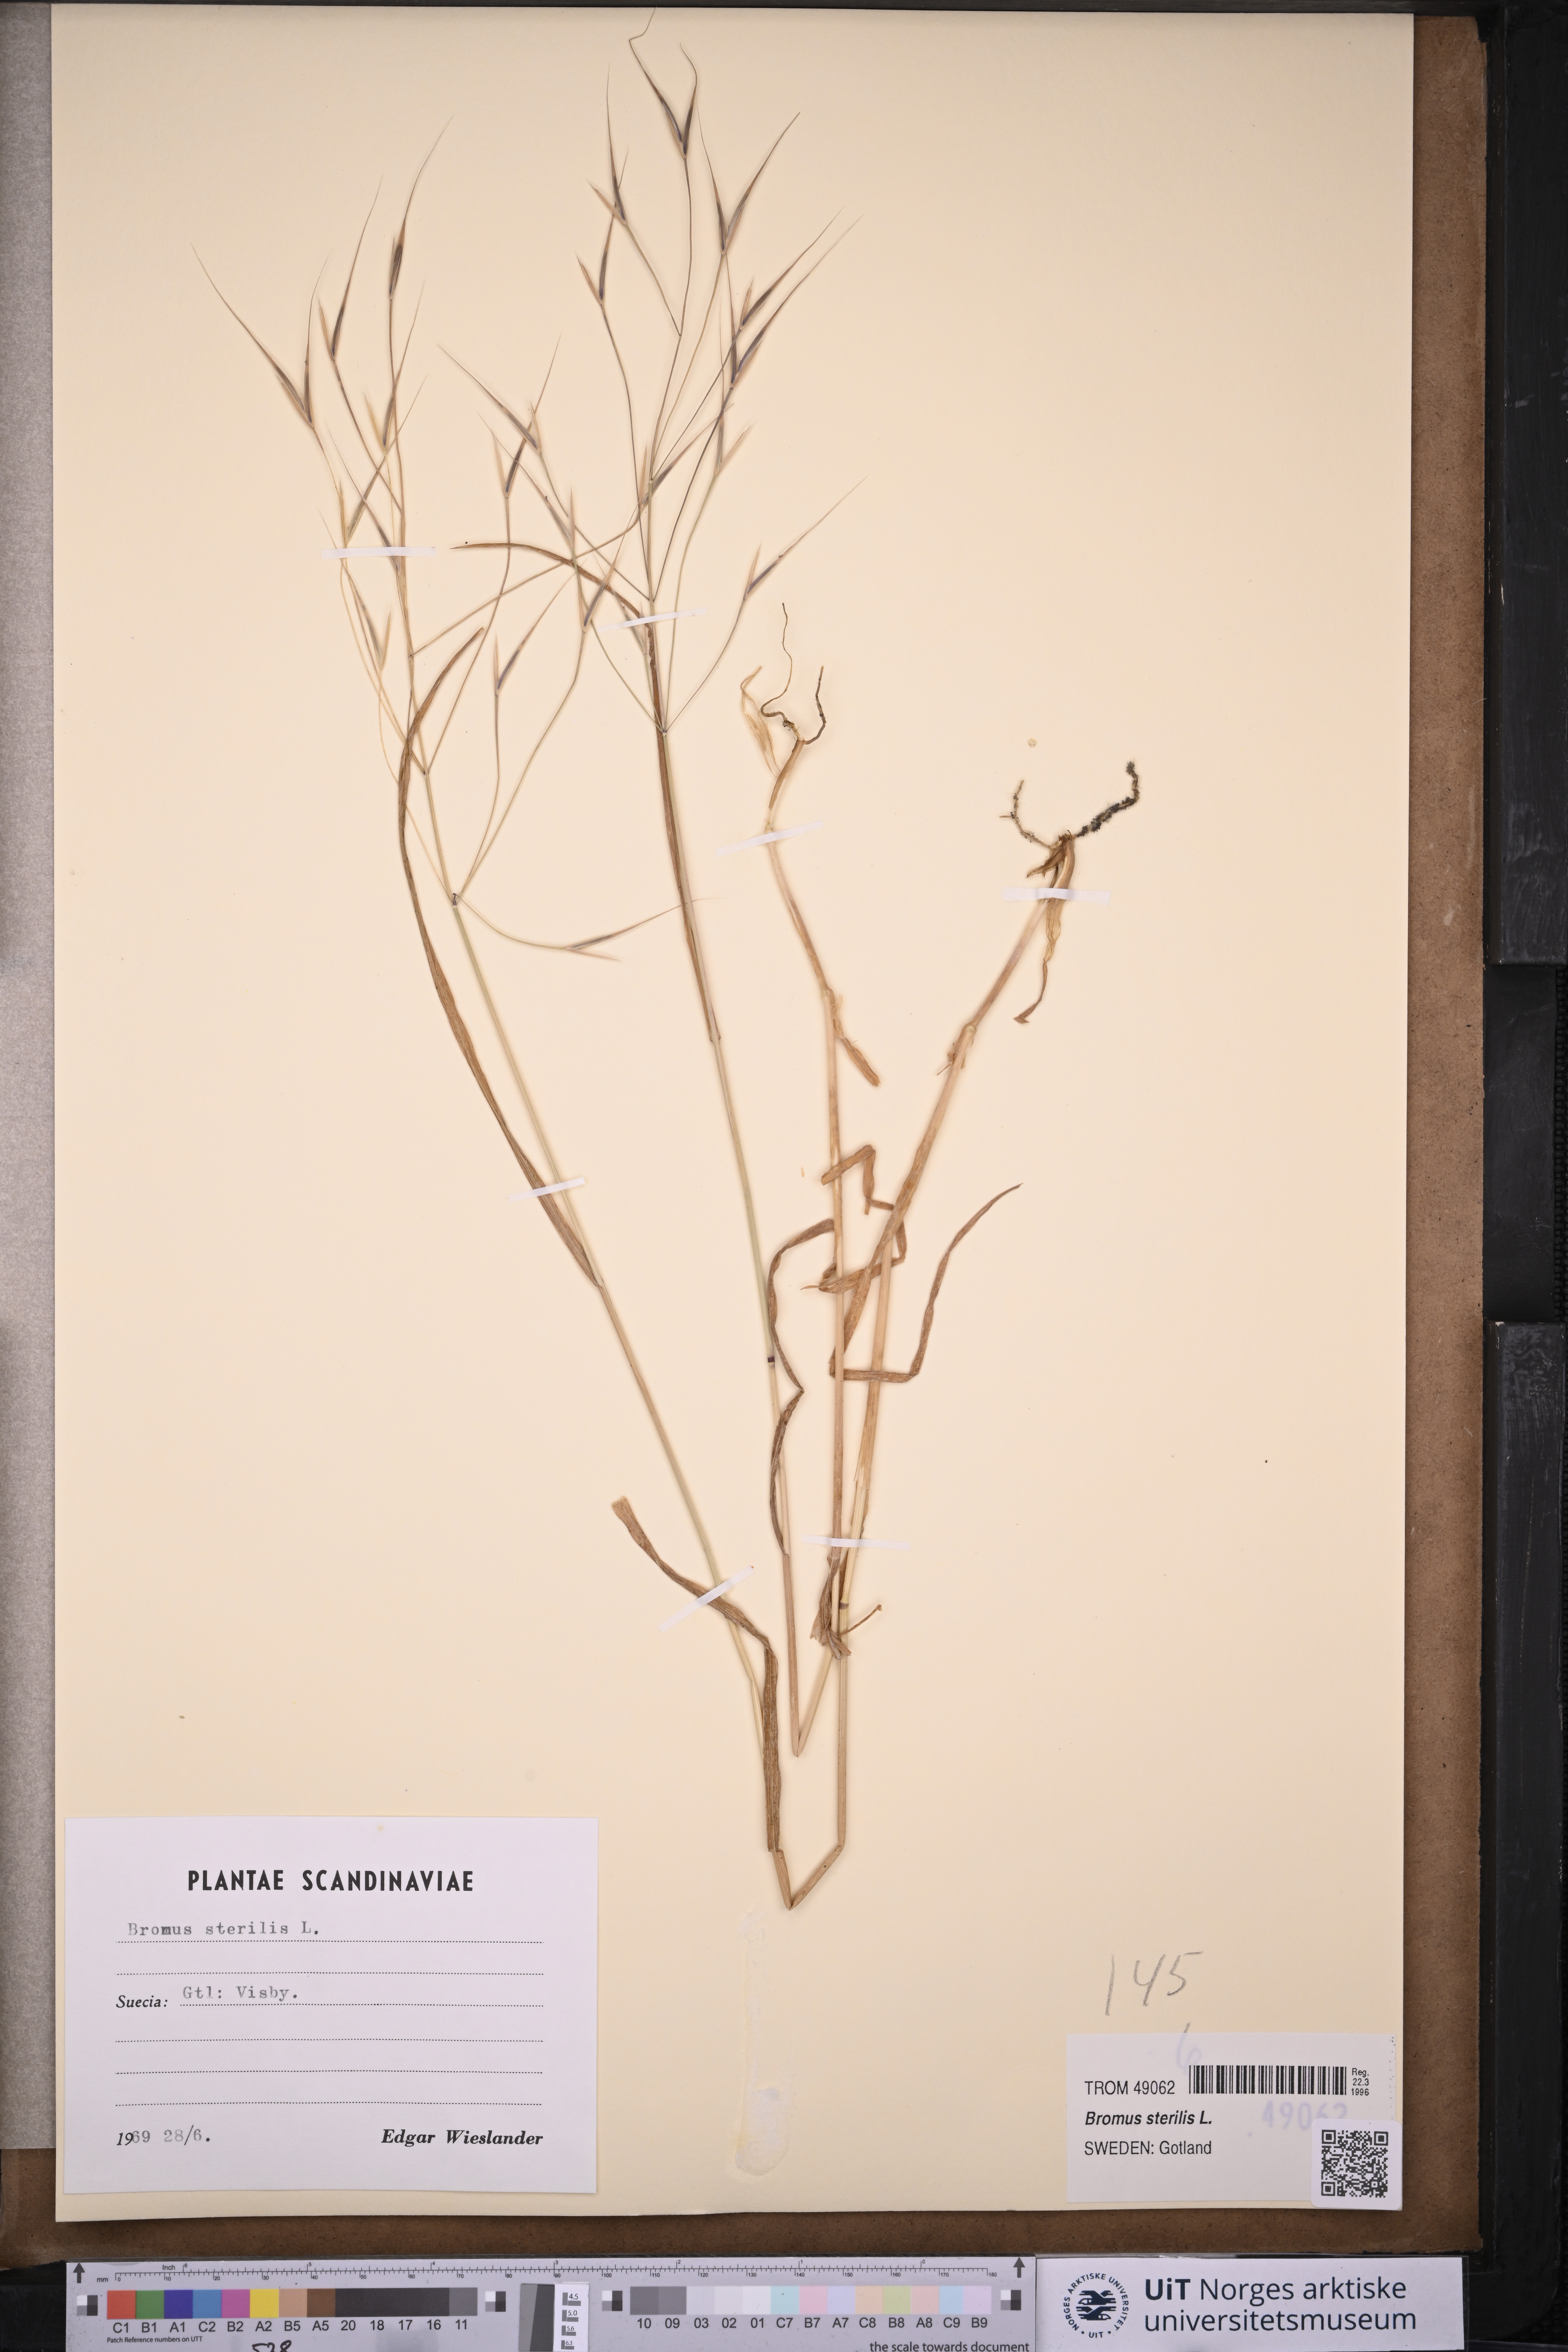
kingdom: Plantae
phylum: Tracheophyta
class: Liliopsida
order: Poales
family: Poaceae
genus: Bromus
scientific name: Bromus sterilis
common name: Poverty brome
